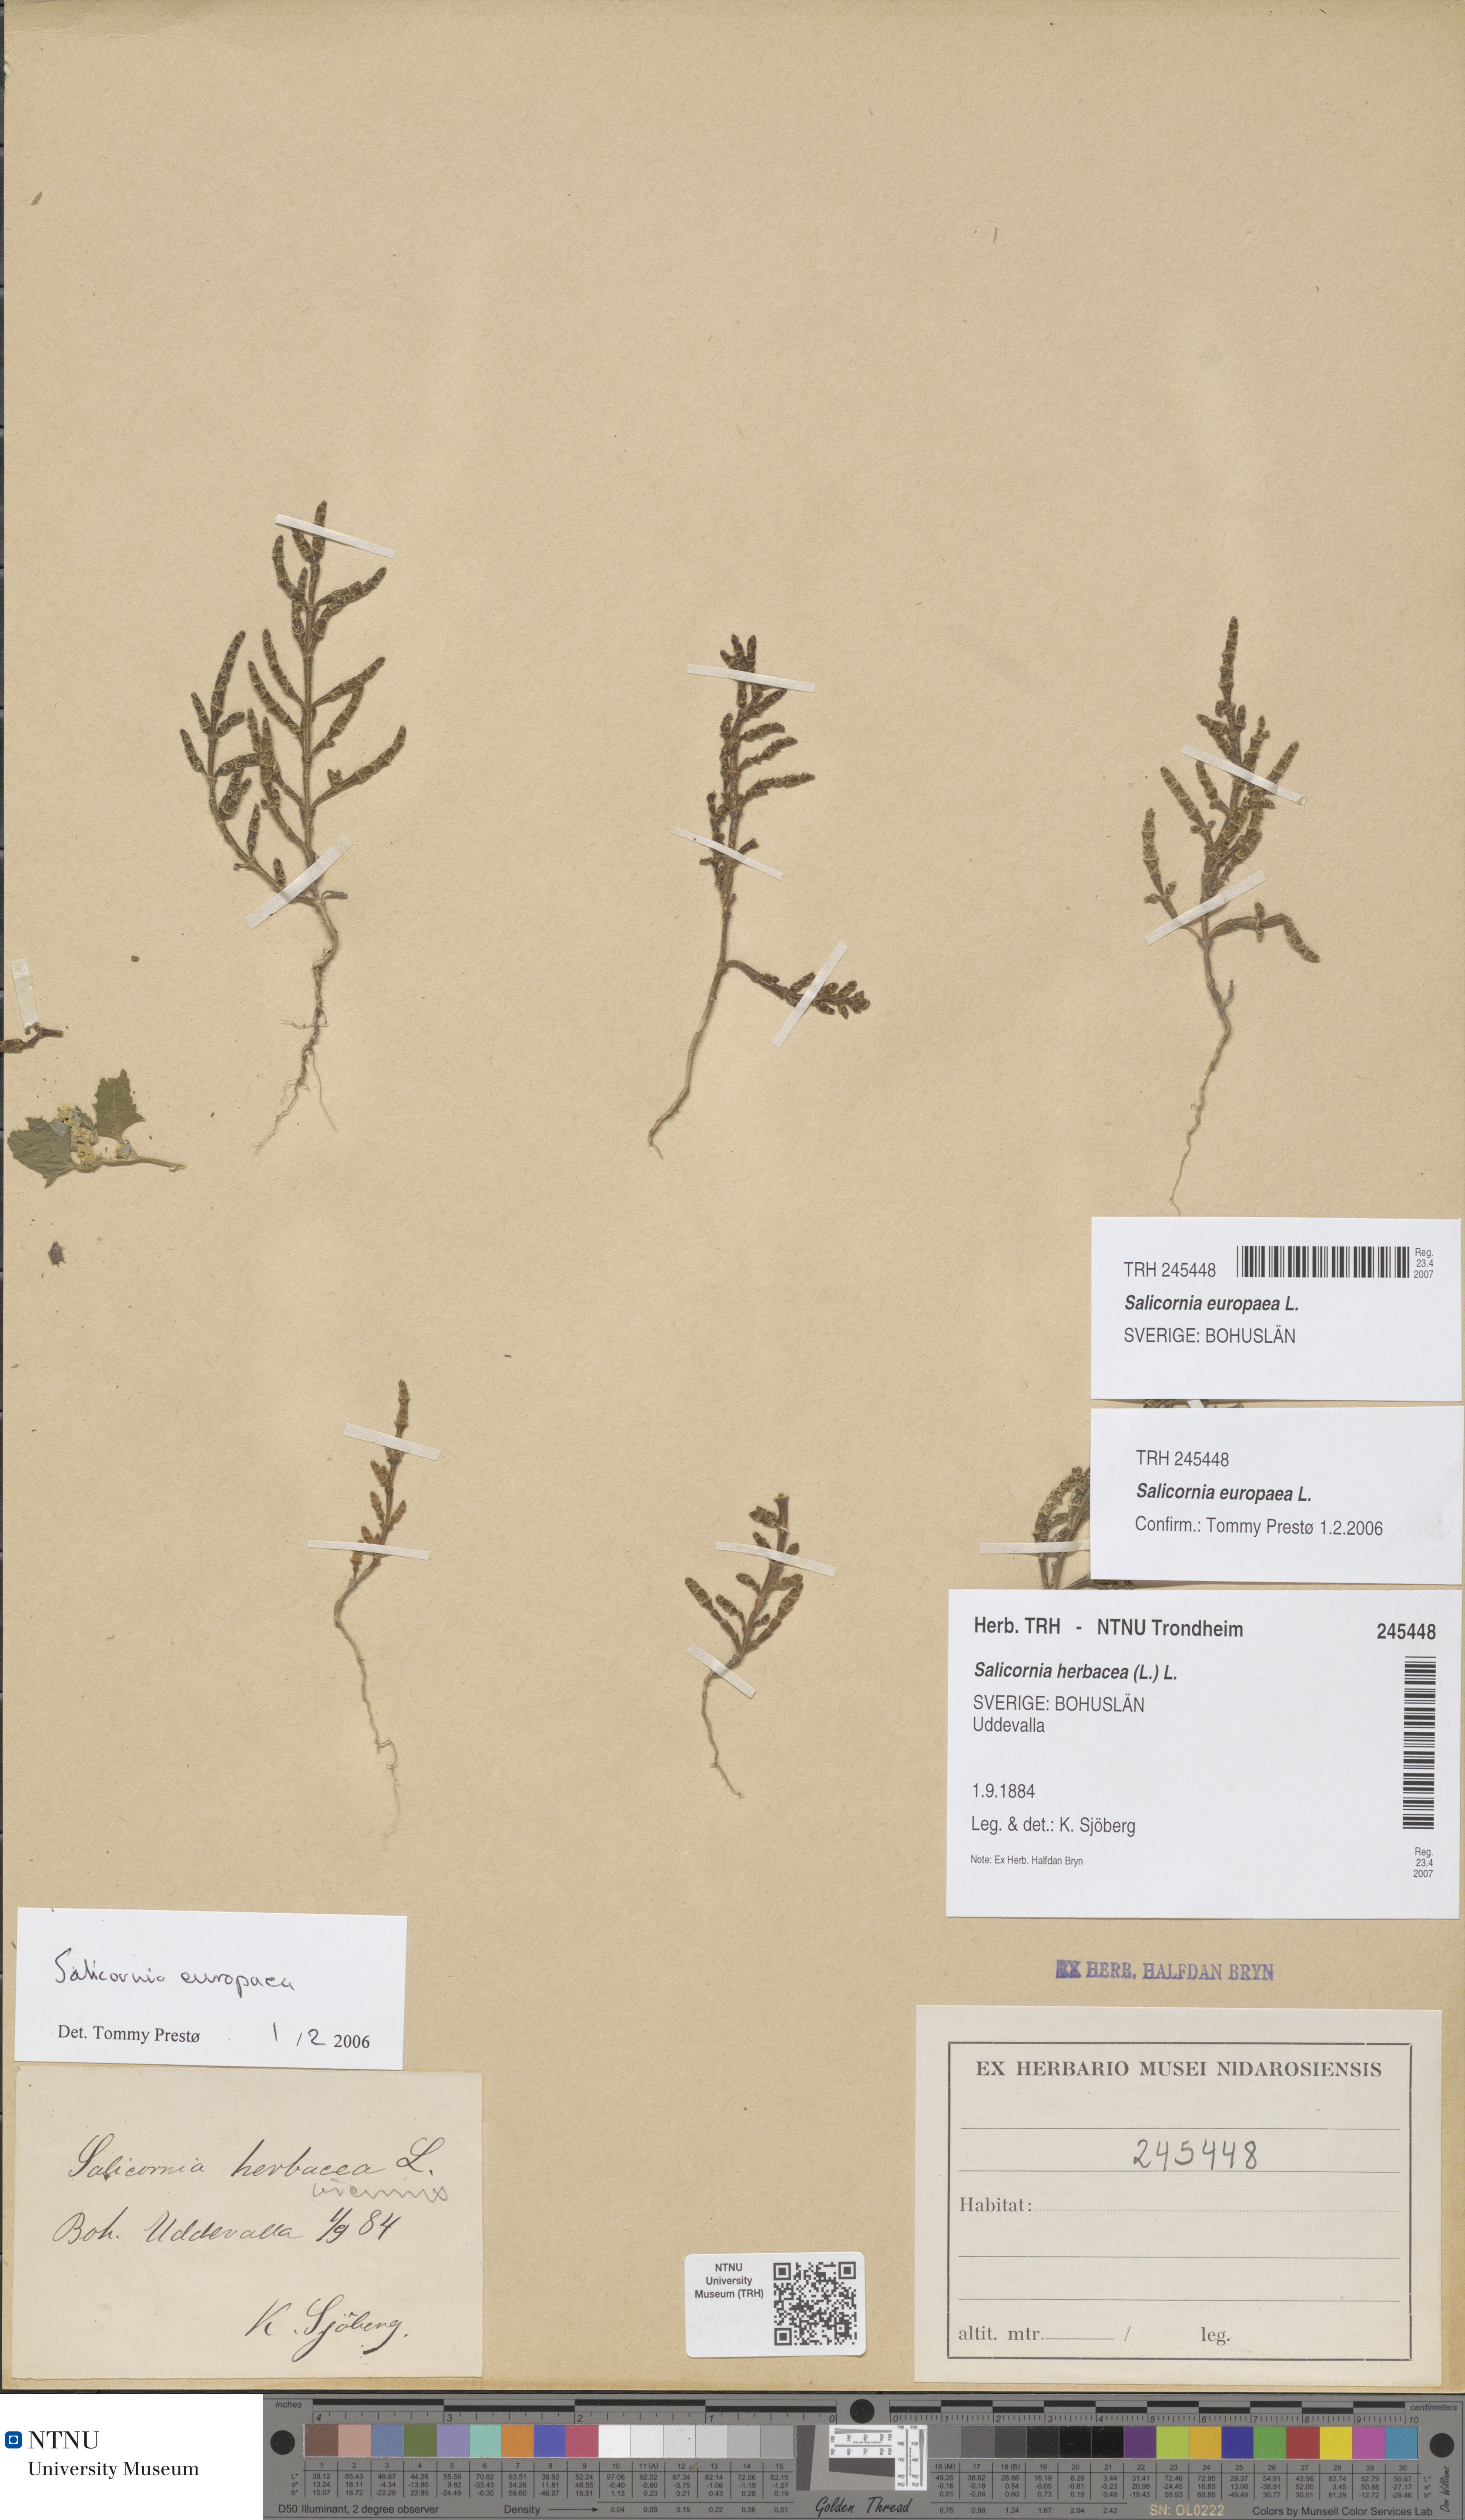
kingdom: Plantae
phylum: Tracheophyta
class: Magnoliopsida
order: Caryophyllales
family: Amaranthaceae
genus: Salicornia
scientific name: Salicornia europaea
